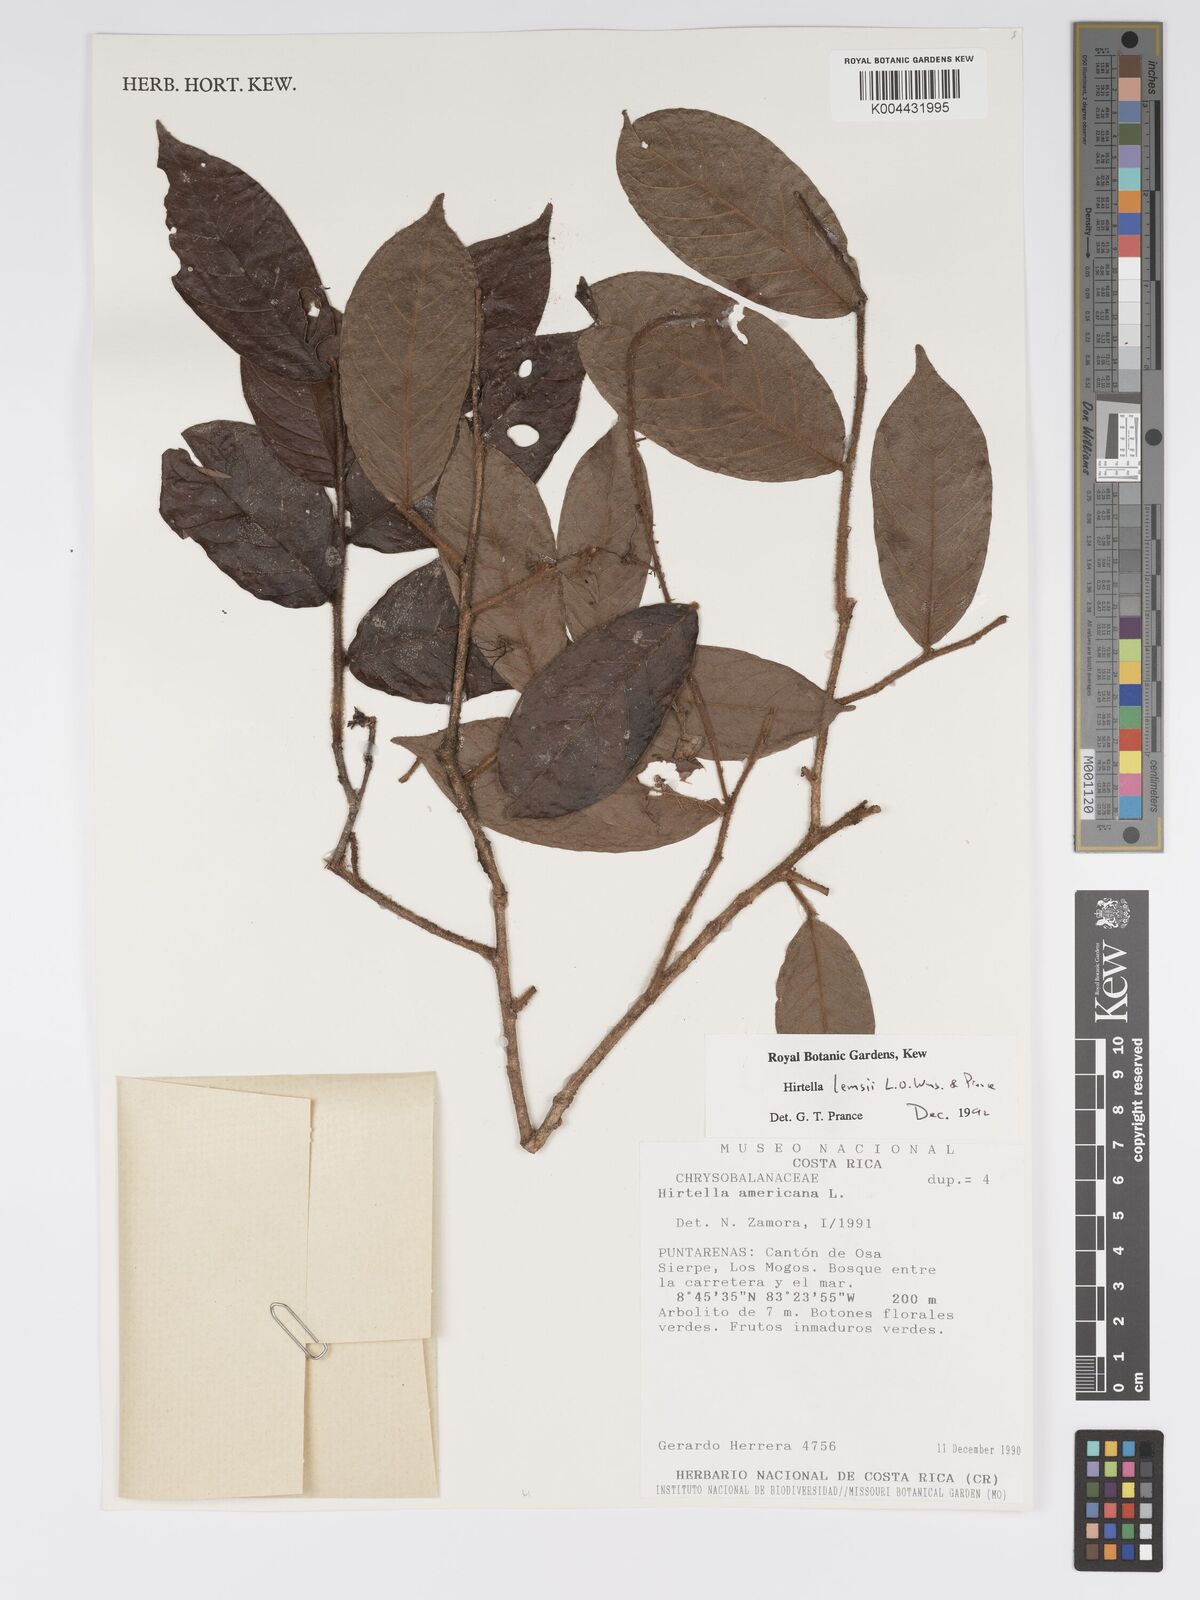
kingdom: Plantae
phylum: Tracheophyta
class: Magnoliopsida
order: Malpighiales
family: Chrysobalanaceae
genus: Hirtella
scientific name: Hirtella lemsii
